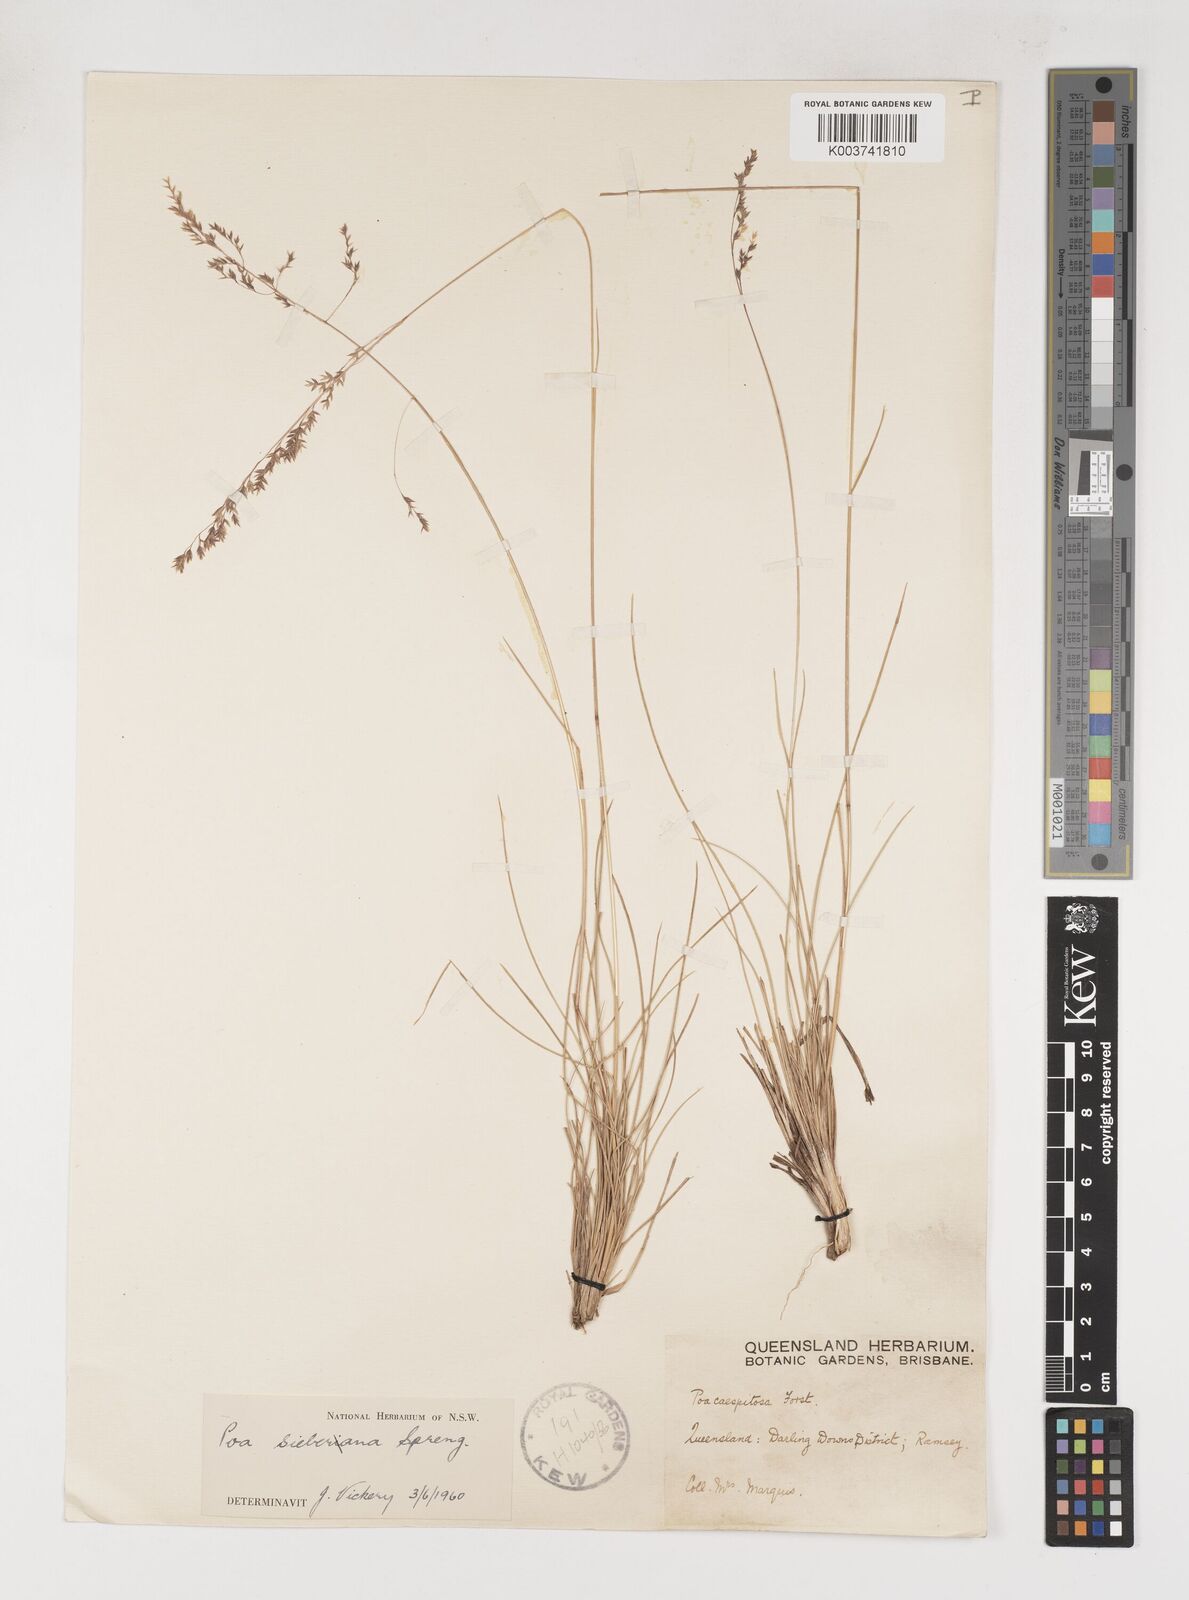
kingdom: Plantae
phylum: Tracheophyta
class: Liliopsida
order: Poales
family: Poaceae
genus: Poa
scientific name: Poa sieberiana
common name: Tussock poa
